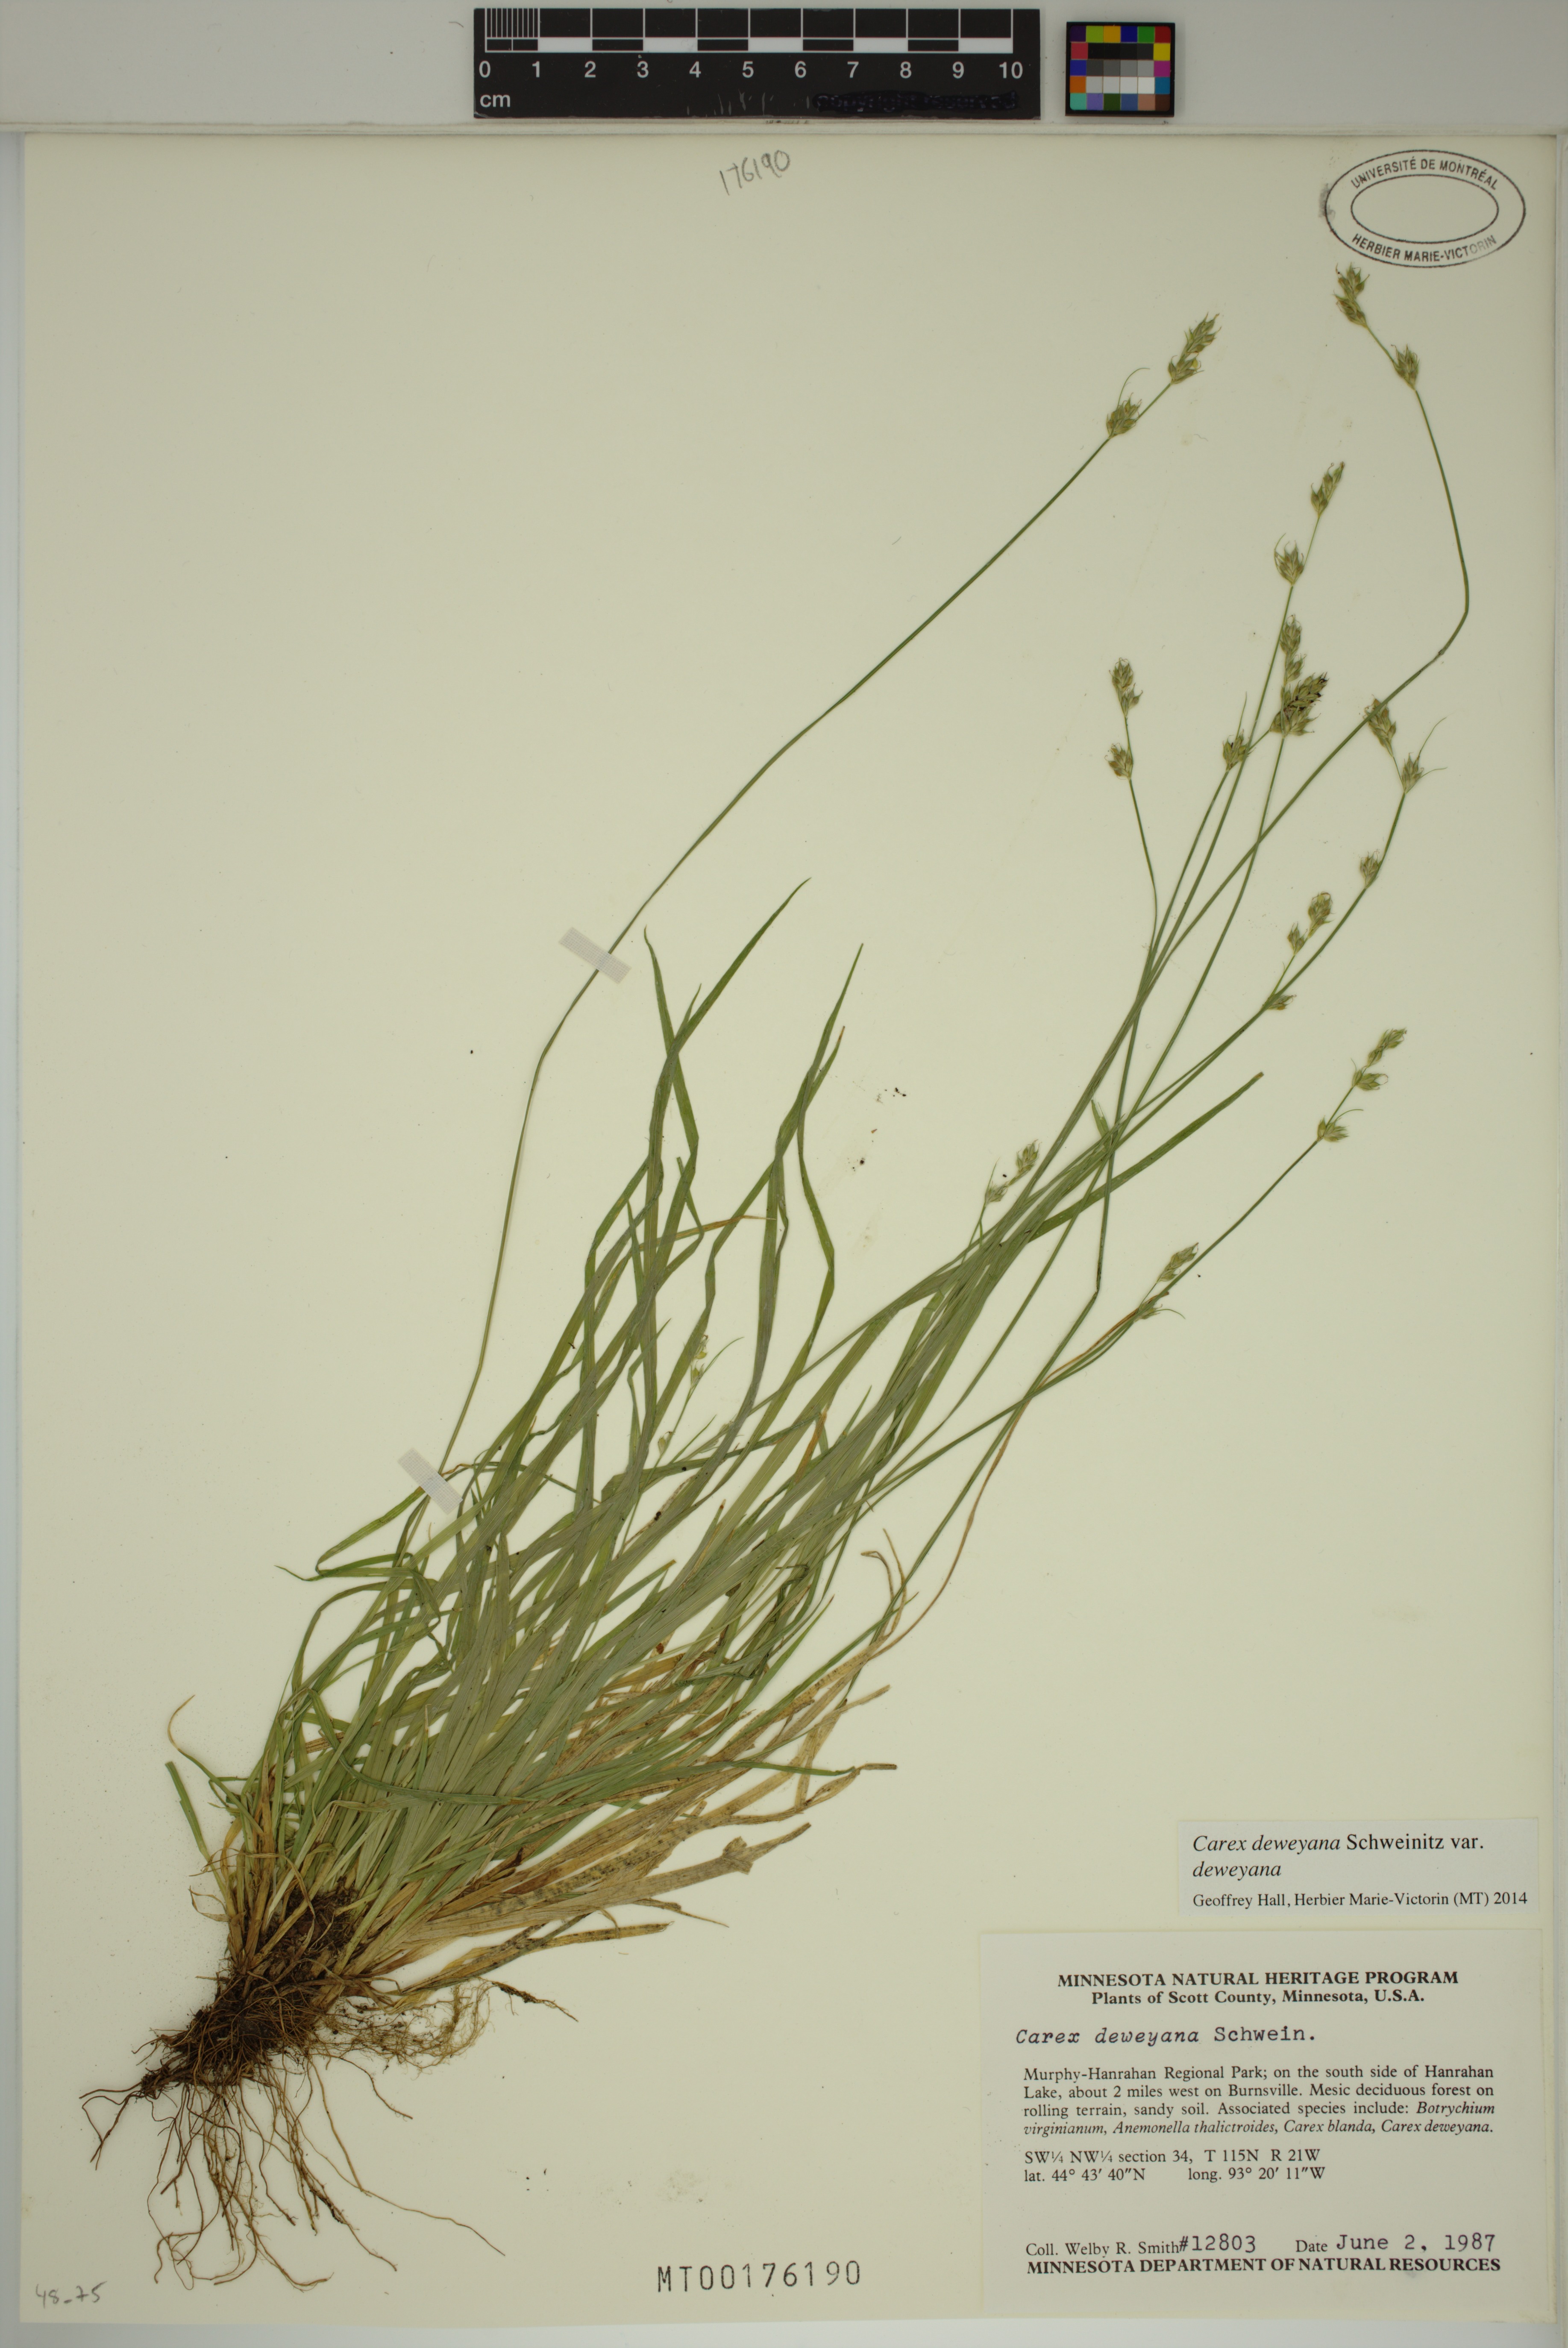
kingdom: Plantae
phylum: Tracheophyta
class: Liliopsida
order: Poales
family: Cyperaceae
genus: Carex
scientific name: Carex deweyana
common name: Dewey's sedge
